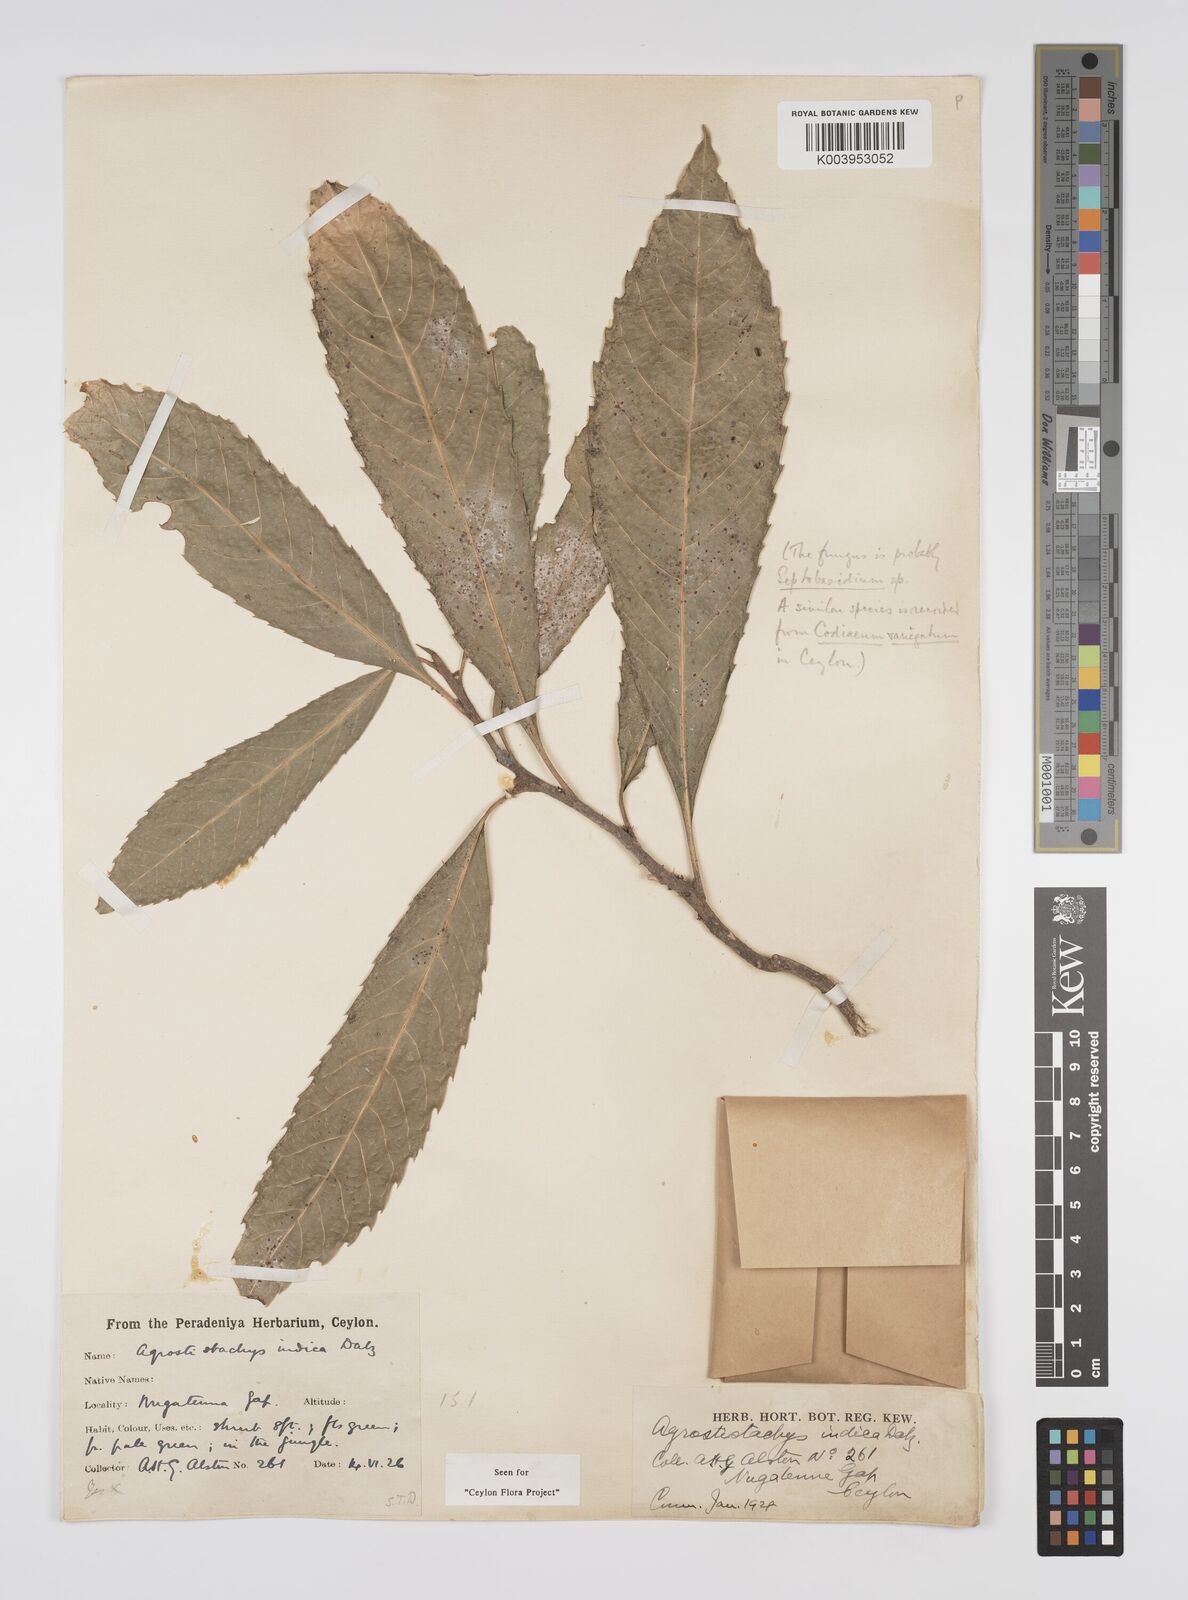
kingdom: Plantae
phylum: Tracheophyta
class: Magnoliopsida
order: Malpighiales
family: Euphorbiaceae
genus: Agrostistachys
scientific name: Agrostistachys indica
